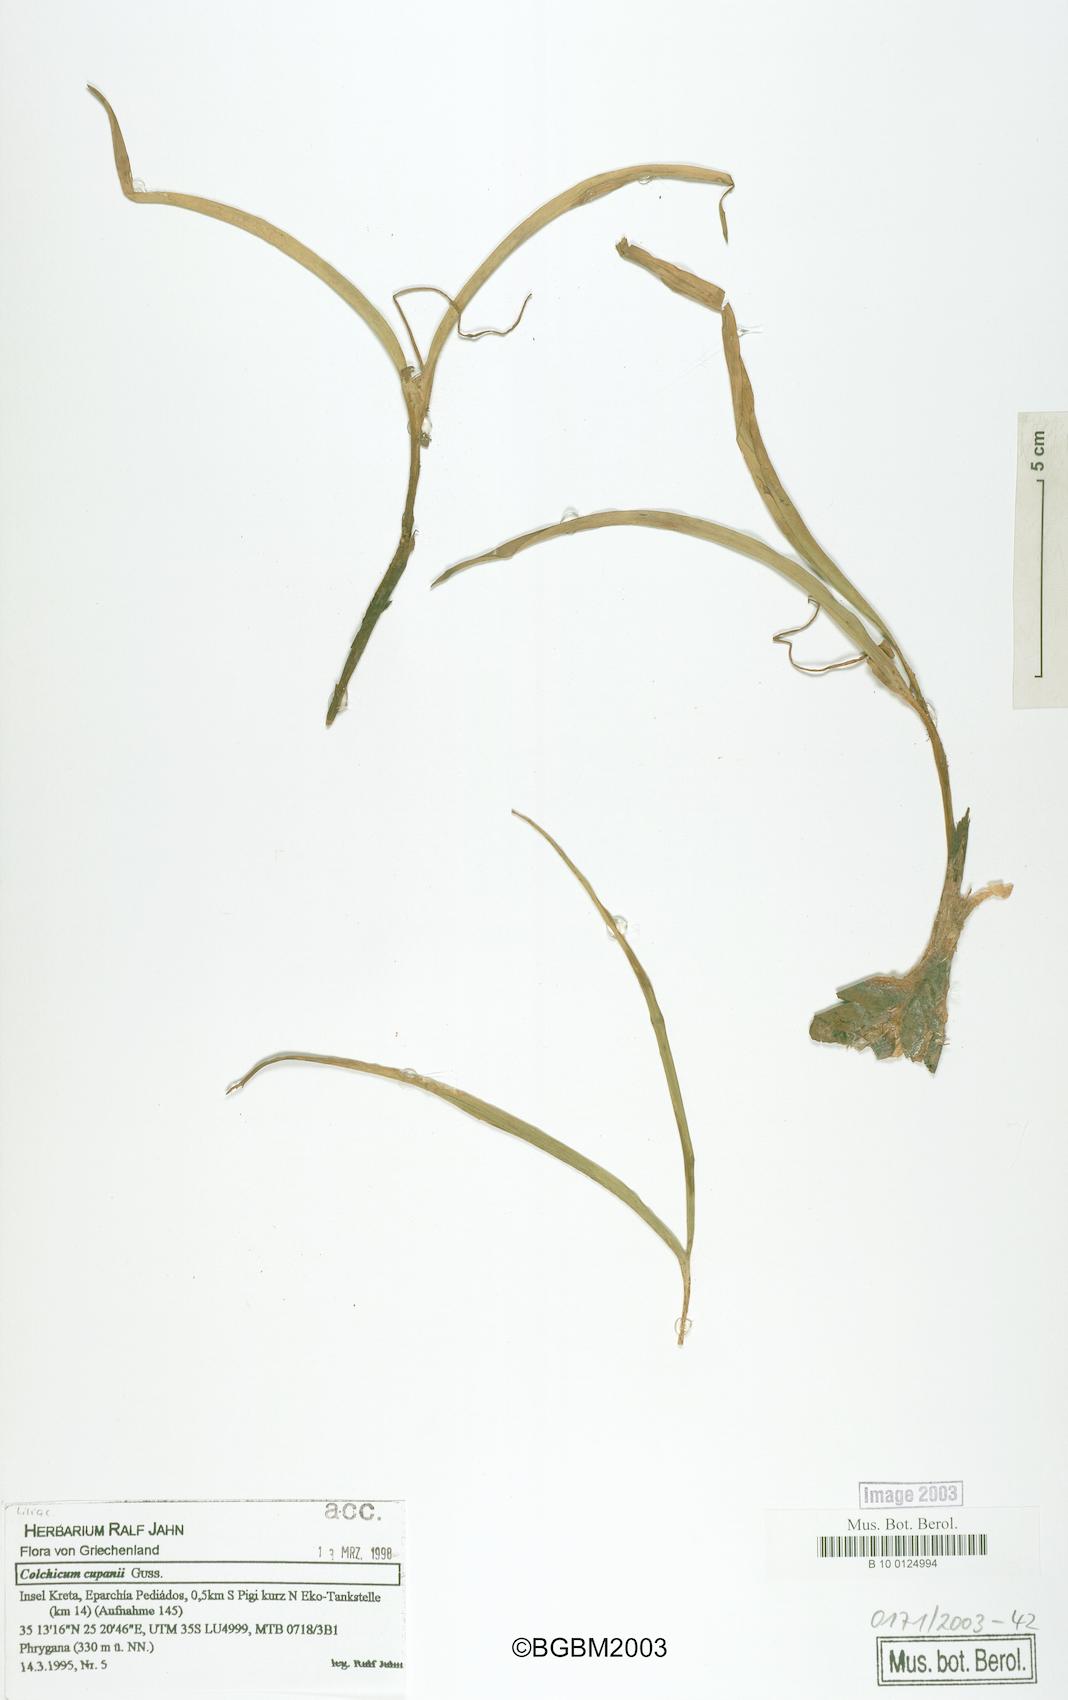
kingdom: Plantae
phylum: Tracheophyta
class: Liliopsida
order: Liliales
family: Colchicaceae
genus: Colchicum
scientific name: Colchicum cupanii
